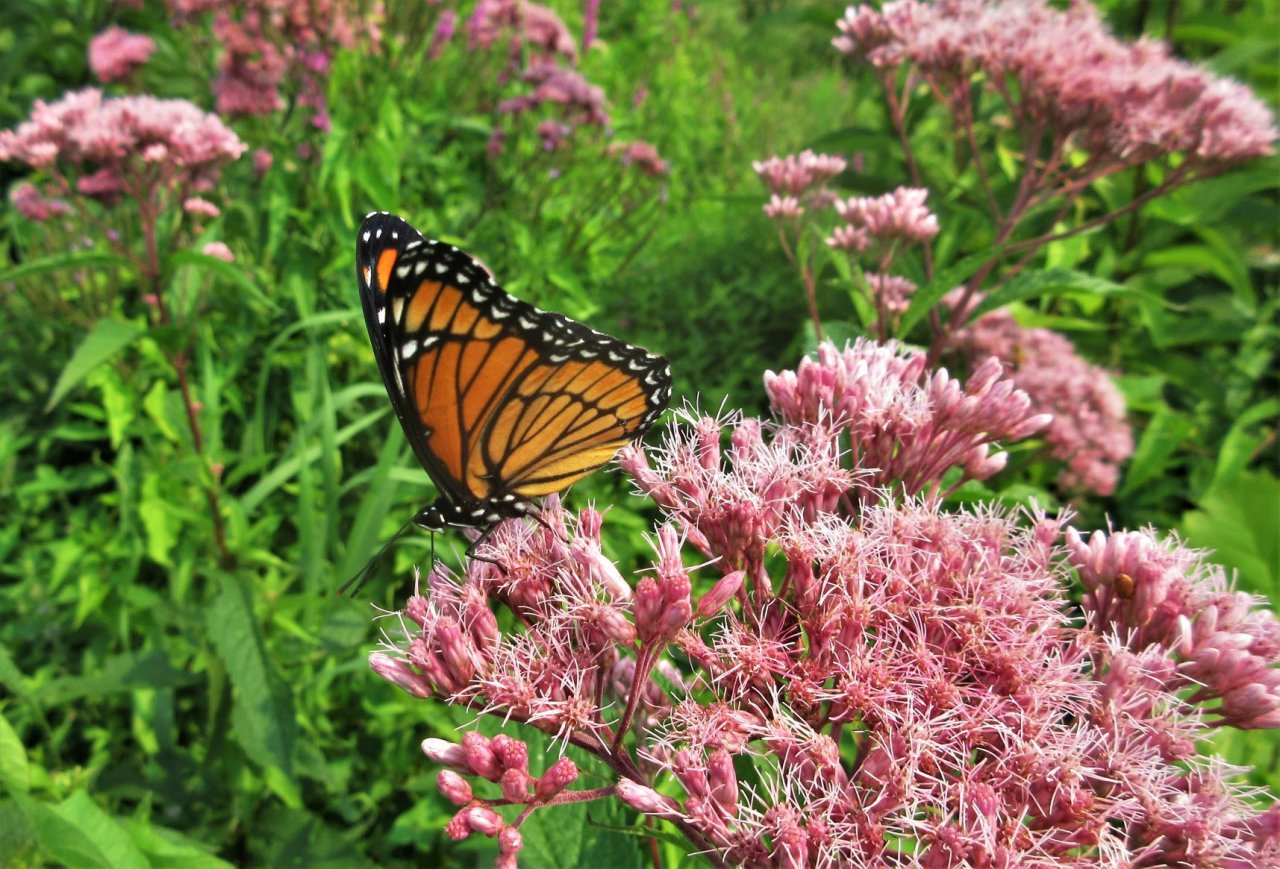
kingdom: Animalia
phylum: Arthropoda
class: Insecta
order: Lepidoptera
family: Nymphalidae
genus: Limenitis
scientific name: Limenitis archippus
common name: Viceroy
